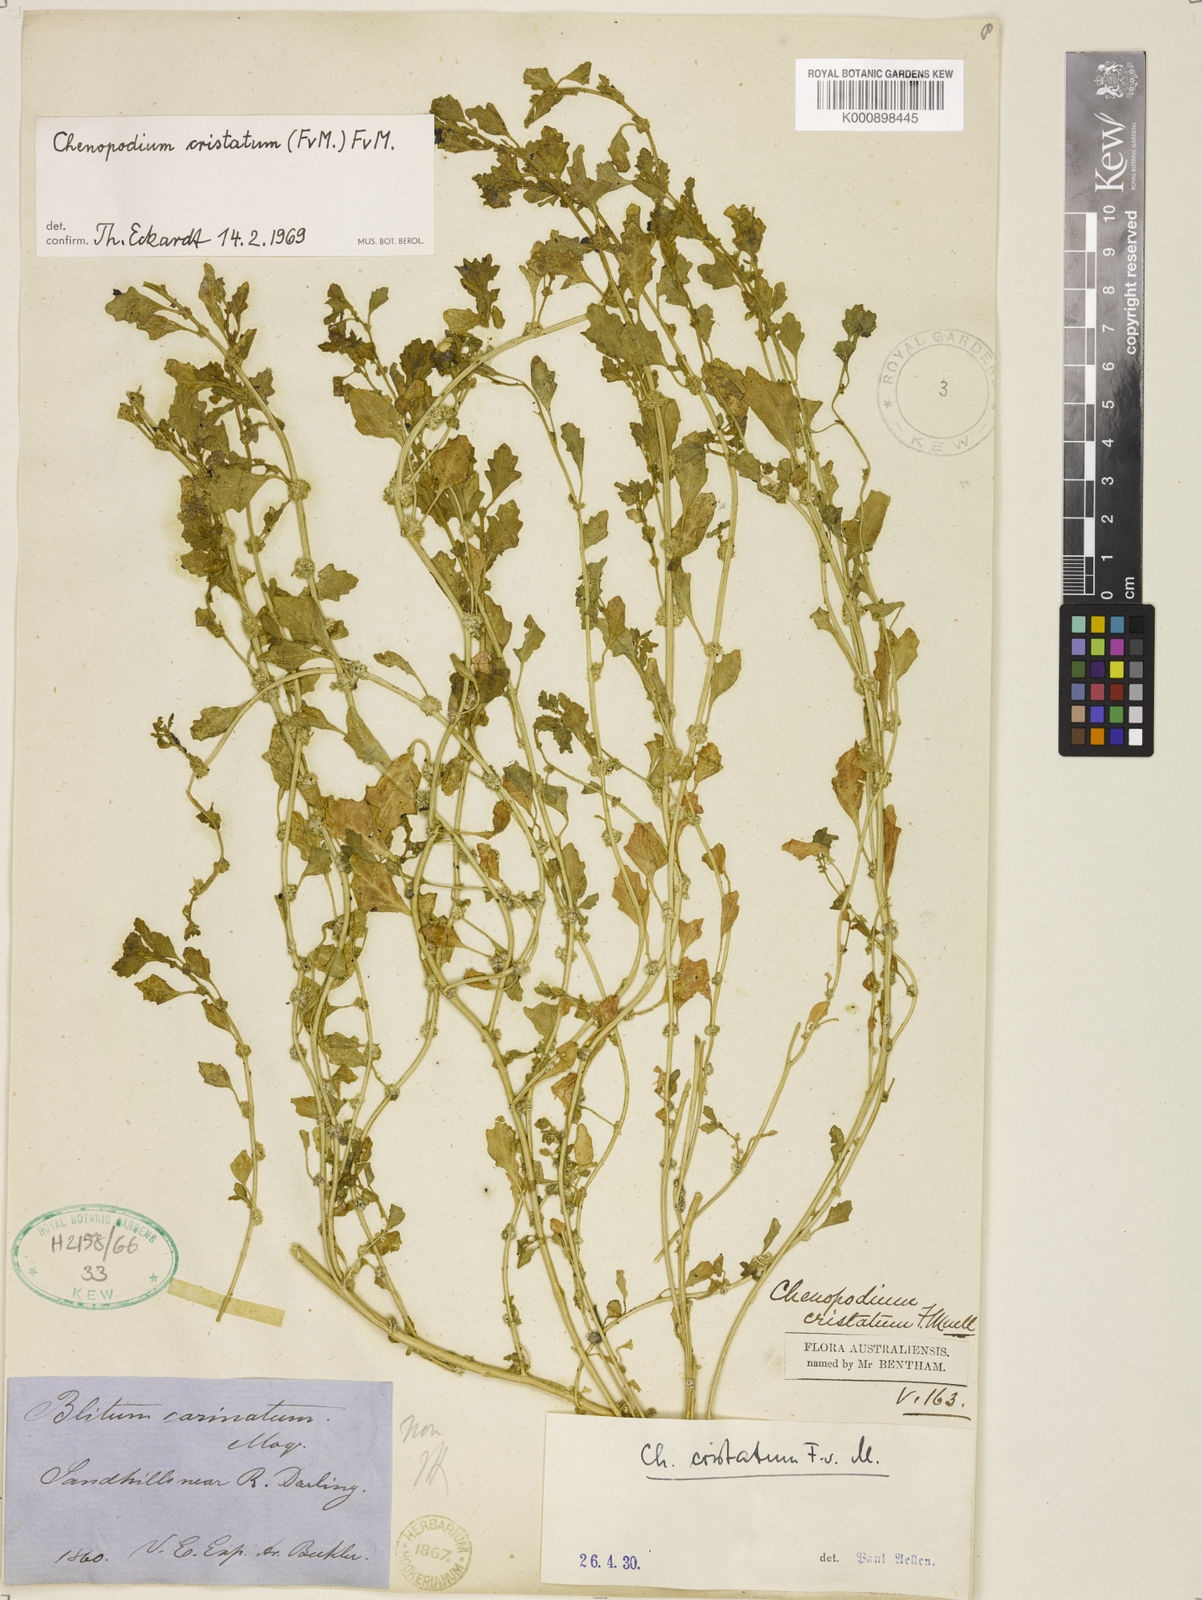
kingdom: Plantae
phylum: Tracheophyta
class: Magnoliopsida
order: Caryophyllales
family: Amaranthaceae
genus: Dysphania
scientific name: Dysphania cristata
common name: Crested goosefoot
